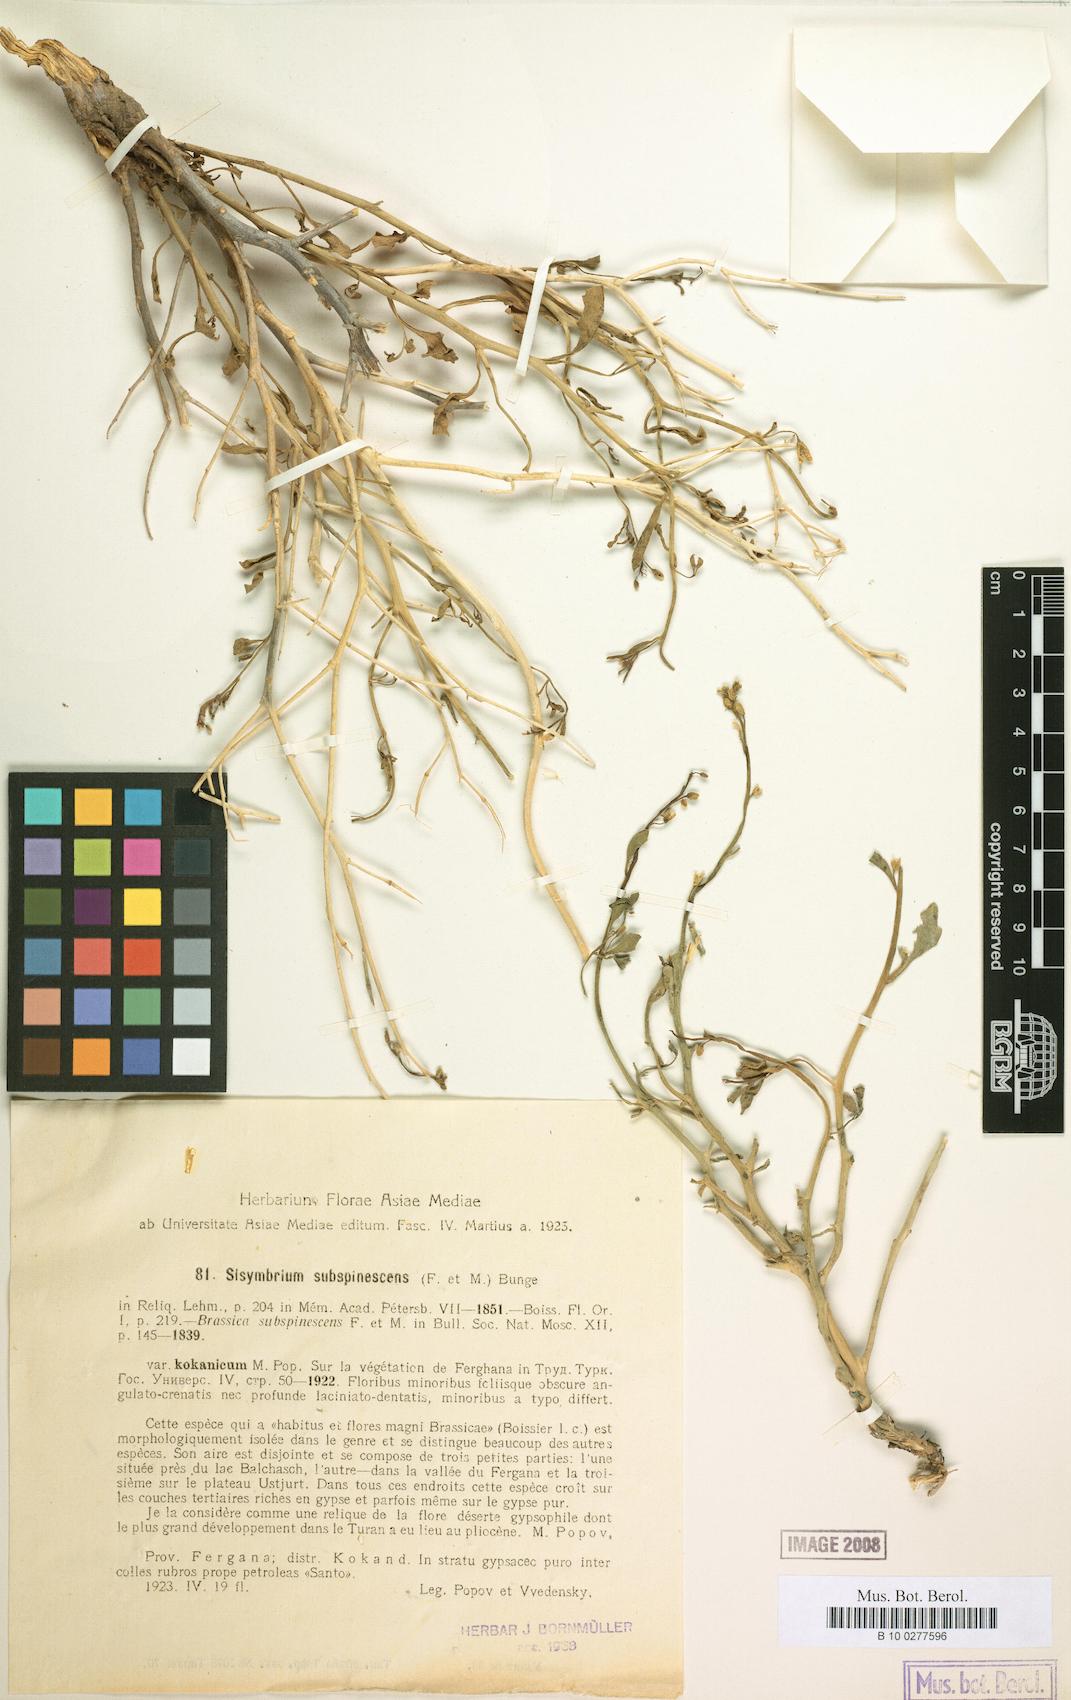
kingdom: Plantae
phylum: Tracheophyta
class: Magnoliopsida
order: Brassicales
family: Brassicaceae
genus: Sisymbrium
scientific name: Sisymbrium subspinescens
